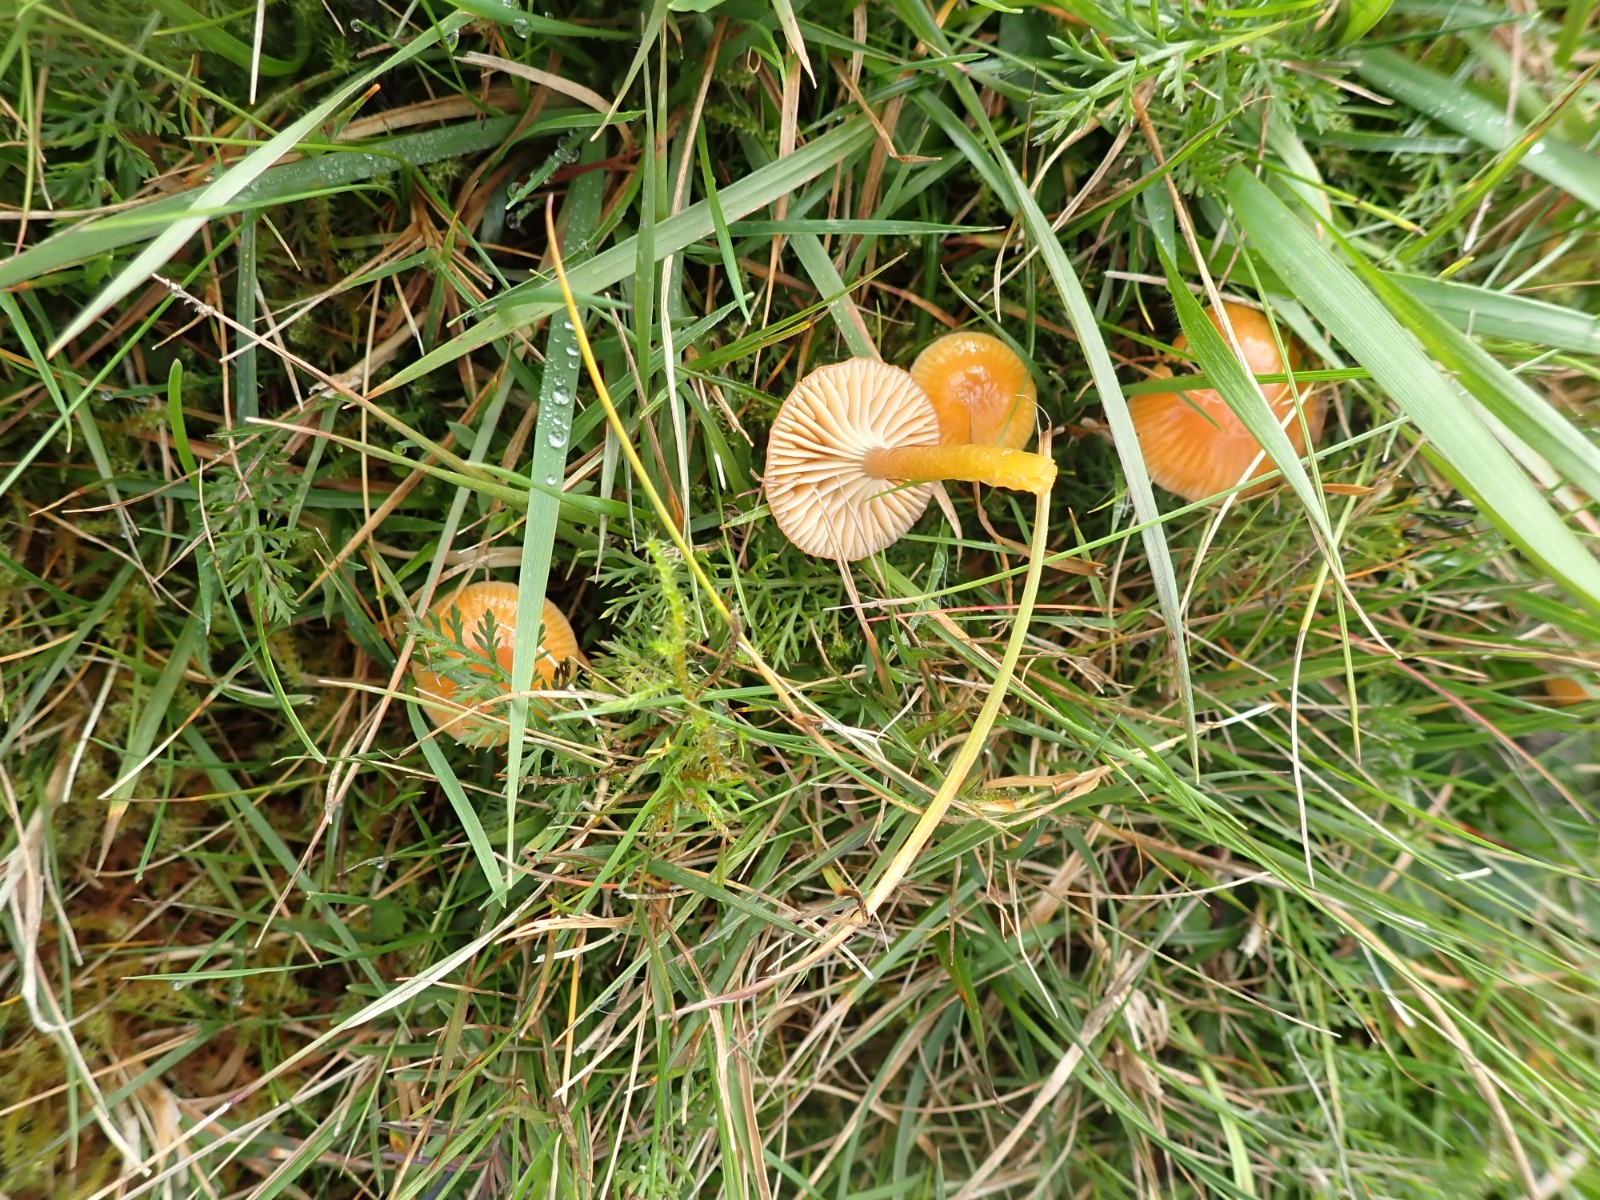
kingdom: Fungi
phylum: Basidiomycota
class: Agaricomycetes
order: Agaricales
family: Hygrophoraceae
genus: Gliophorus
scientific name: Gliophorus laetus
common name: brusk-vokshat
